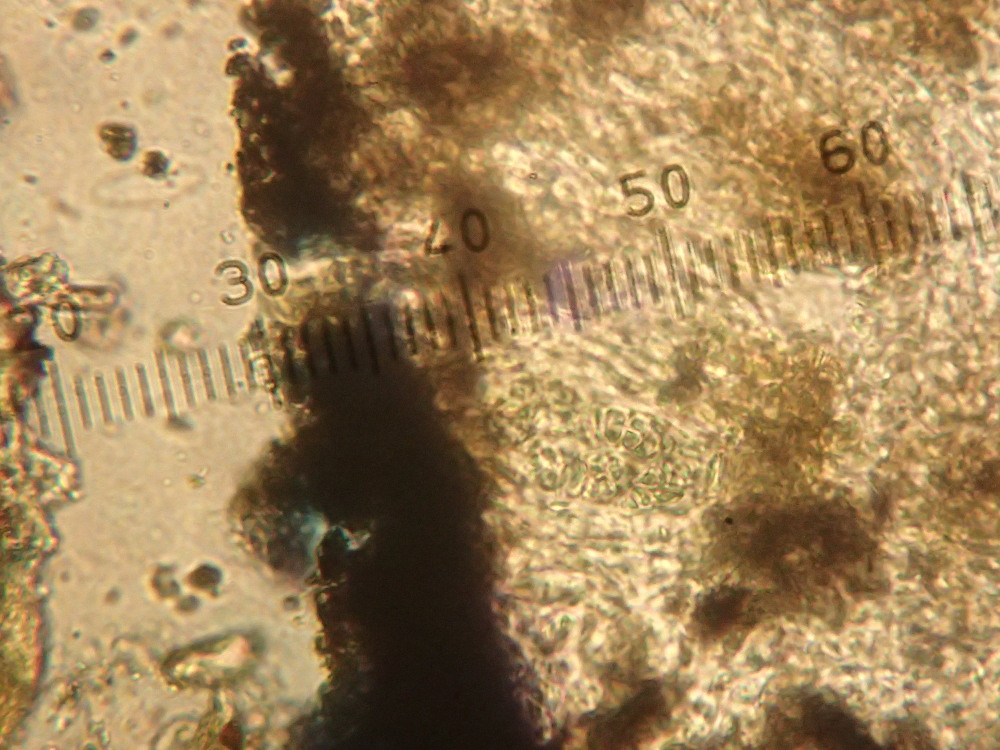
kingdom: Fungi
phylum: Ascomycota
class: Lecanoromycetes
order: Rhizocarpales
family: Rhizocarpaceae
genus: Rhizocarpon
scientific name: Rhizocarpon reductum
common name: mørk landkortlav
